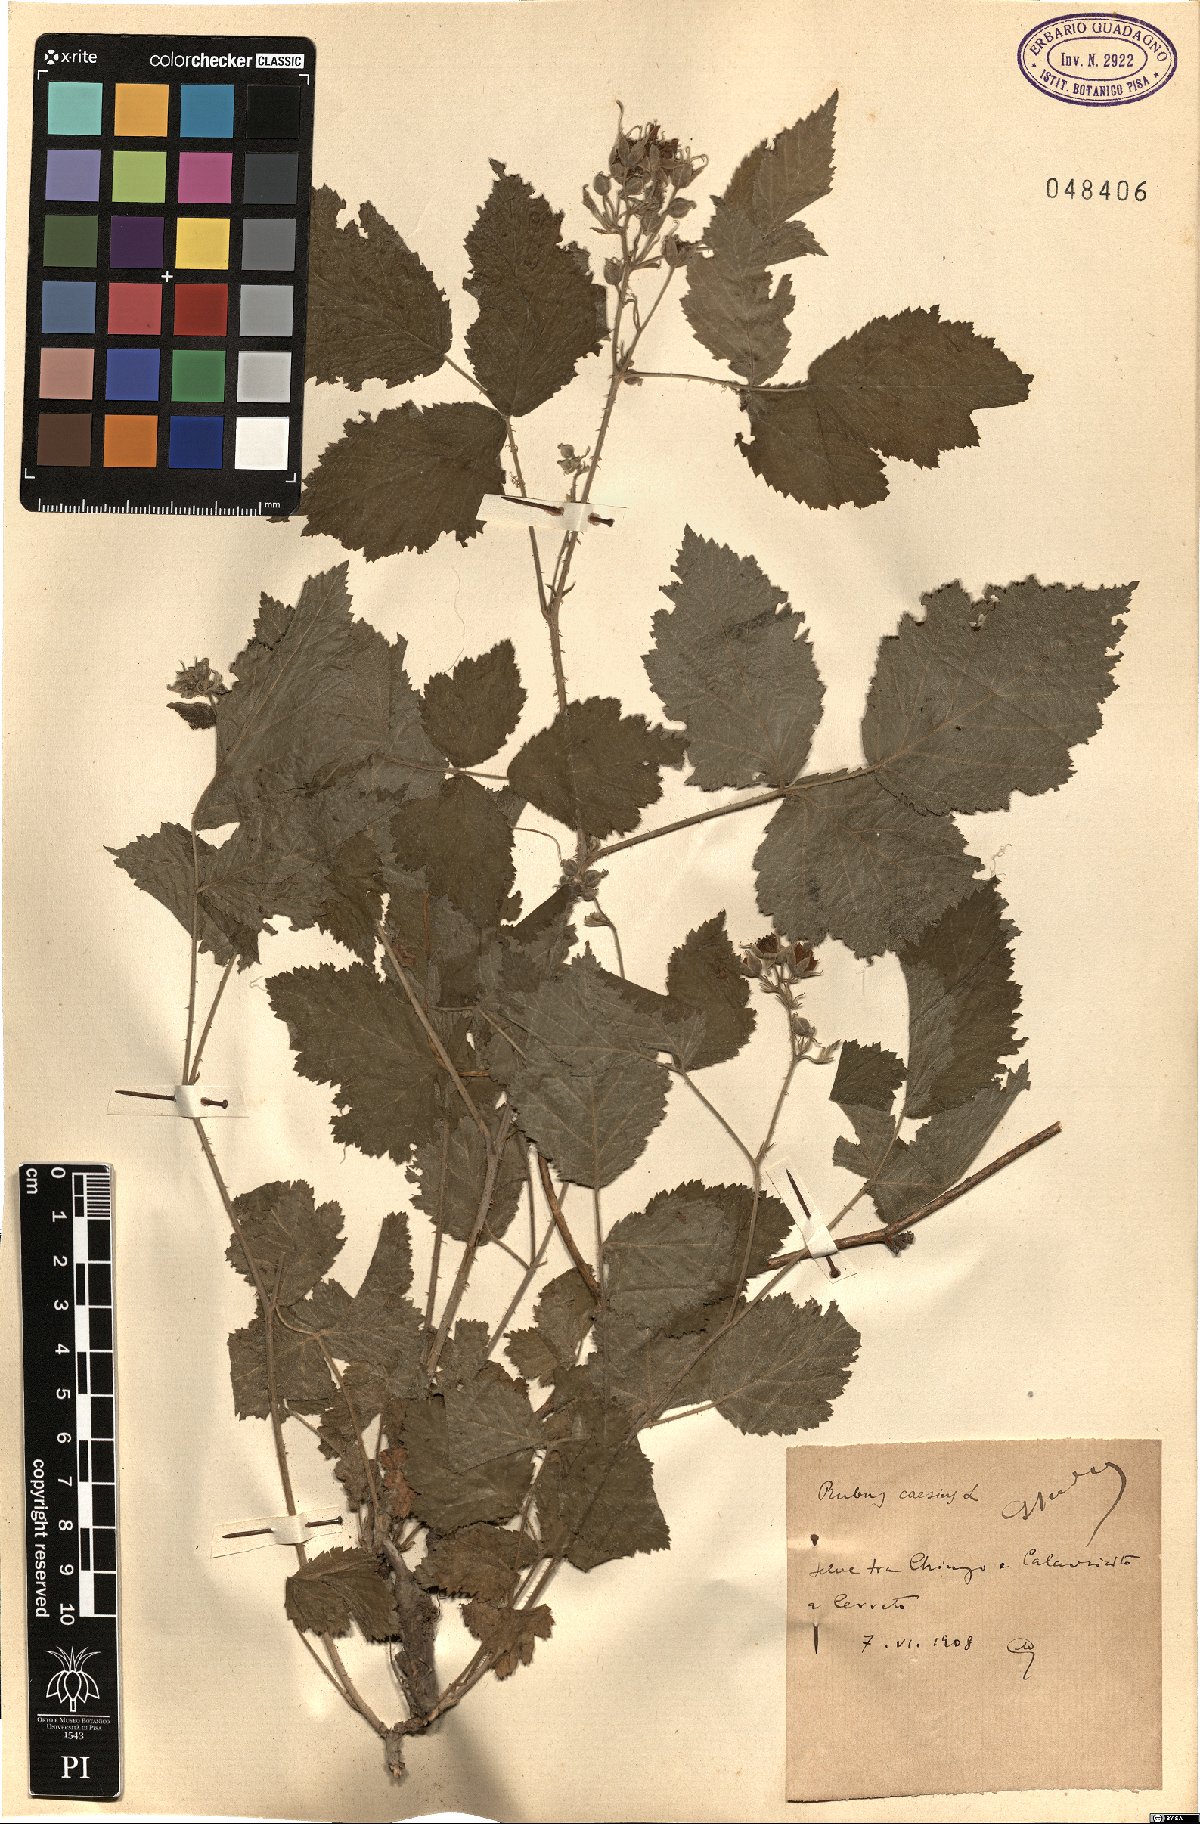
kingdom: Plantae
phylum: Tracheophyta
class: Magnoliopsida
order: Rosales
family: Rosaceae
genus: Rubus
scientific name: Rubus caesius
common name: Dewberry
